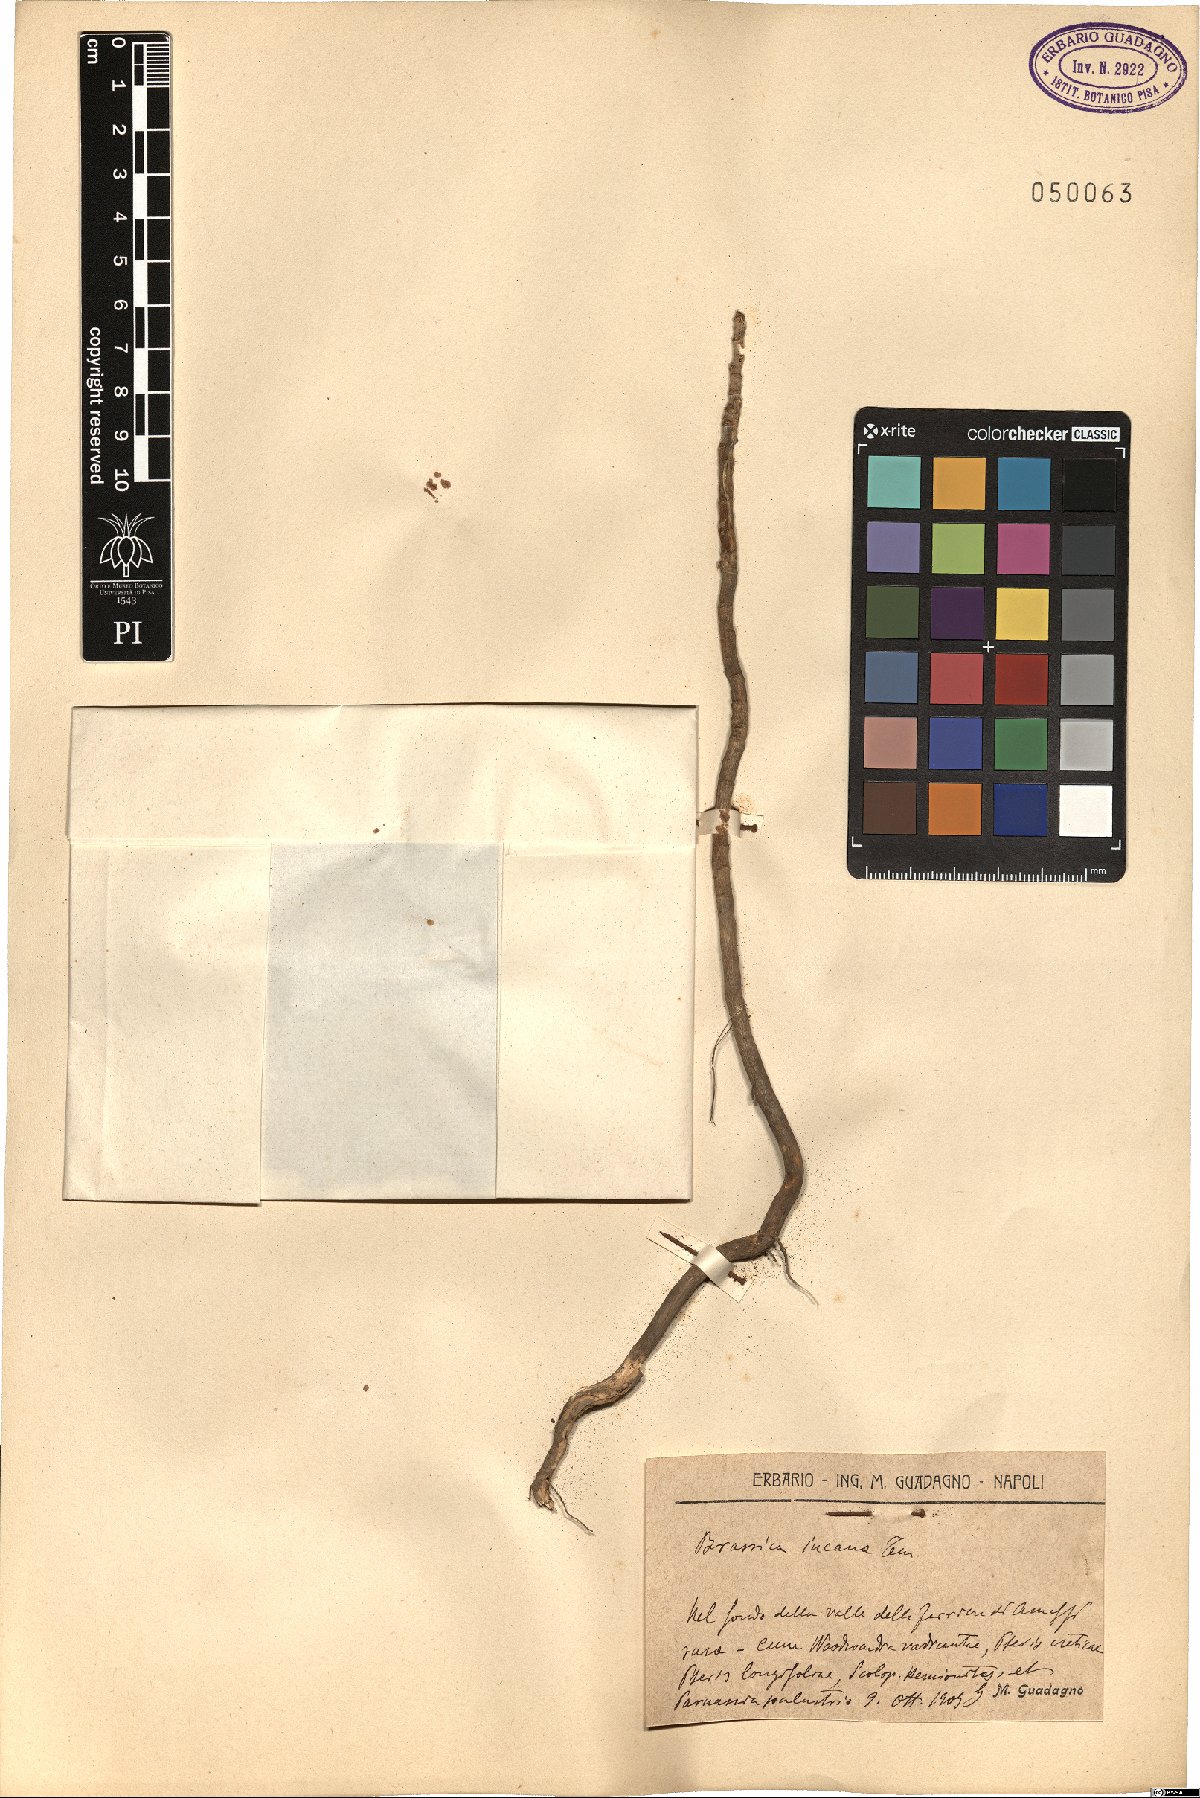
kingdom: Plantae
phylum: Tracheophyta
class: Magnoliopsida
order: Brassicales
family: Brassicaceae
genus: Brassica
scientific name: Brassica incana
